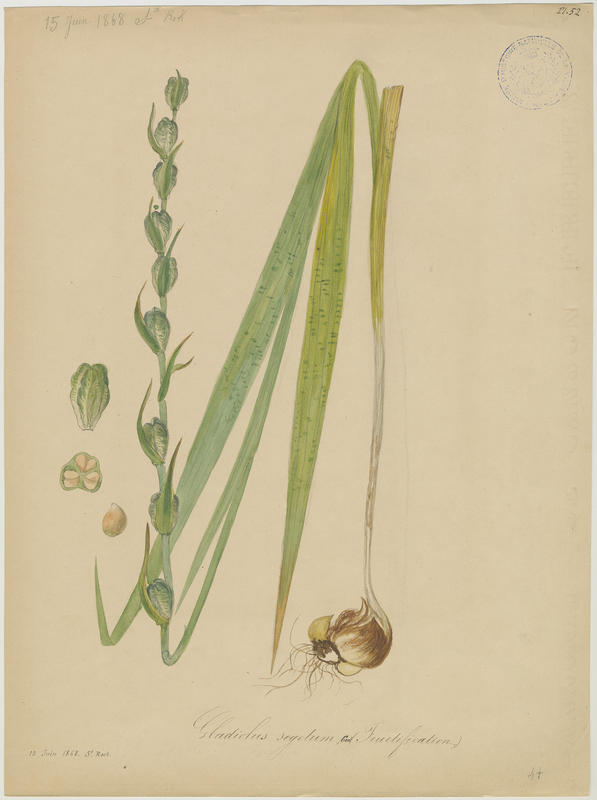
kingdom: Plantae
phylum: Tracheophyta
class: Liliopsida
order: Asparagales
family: Iridaceae
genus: Gladiolus
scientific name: Gladiolus byzantinus
